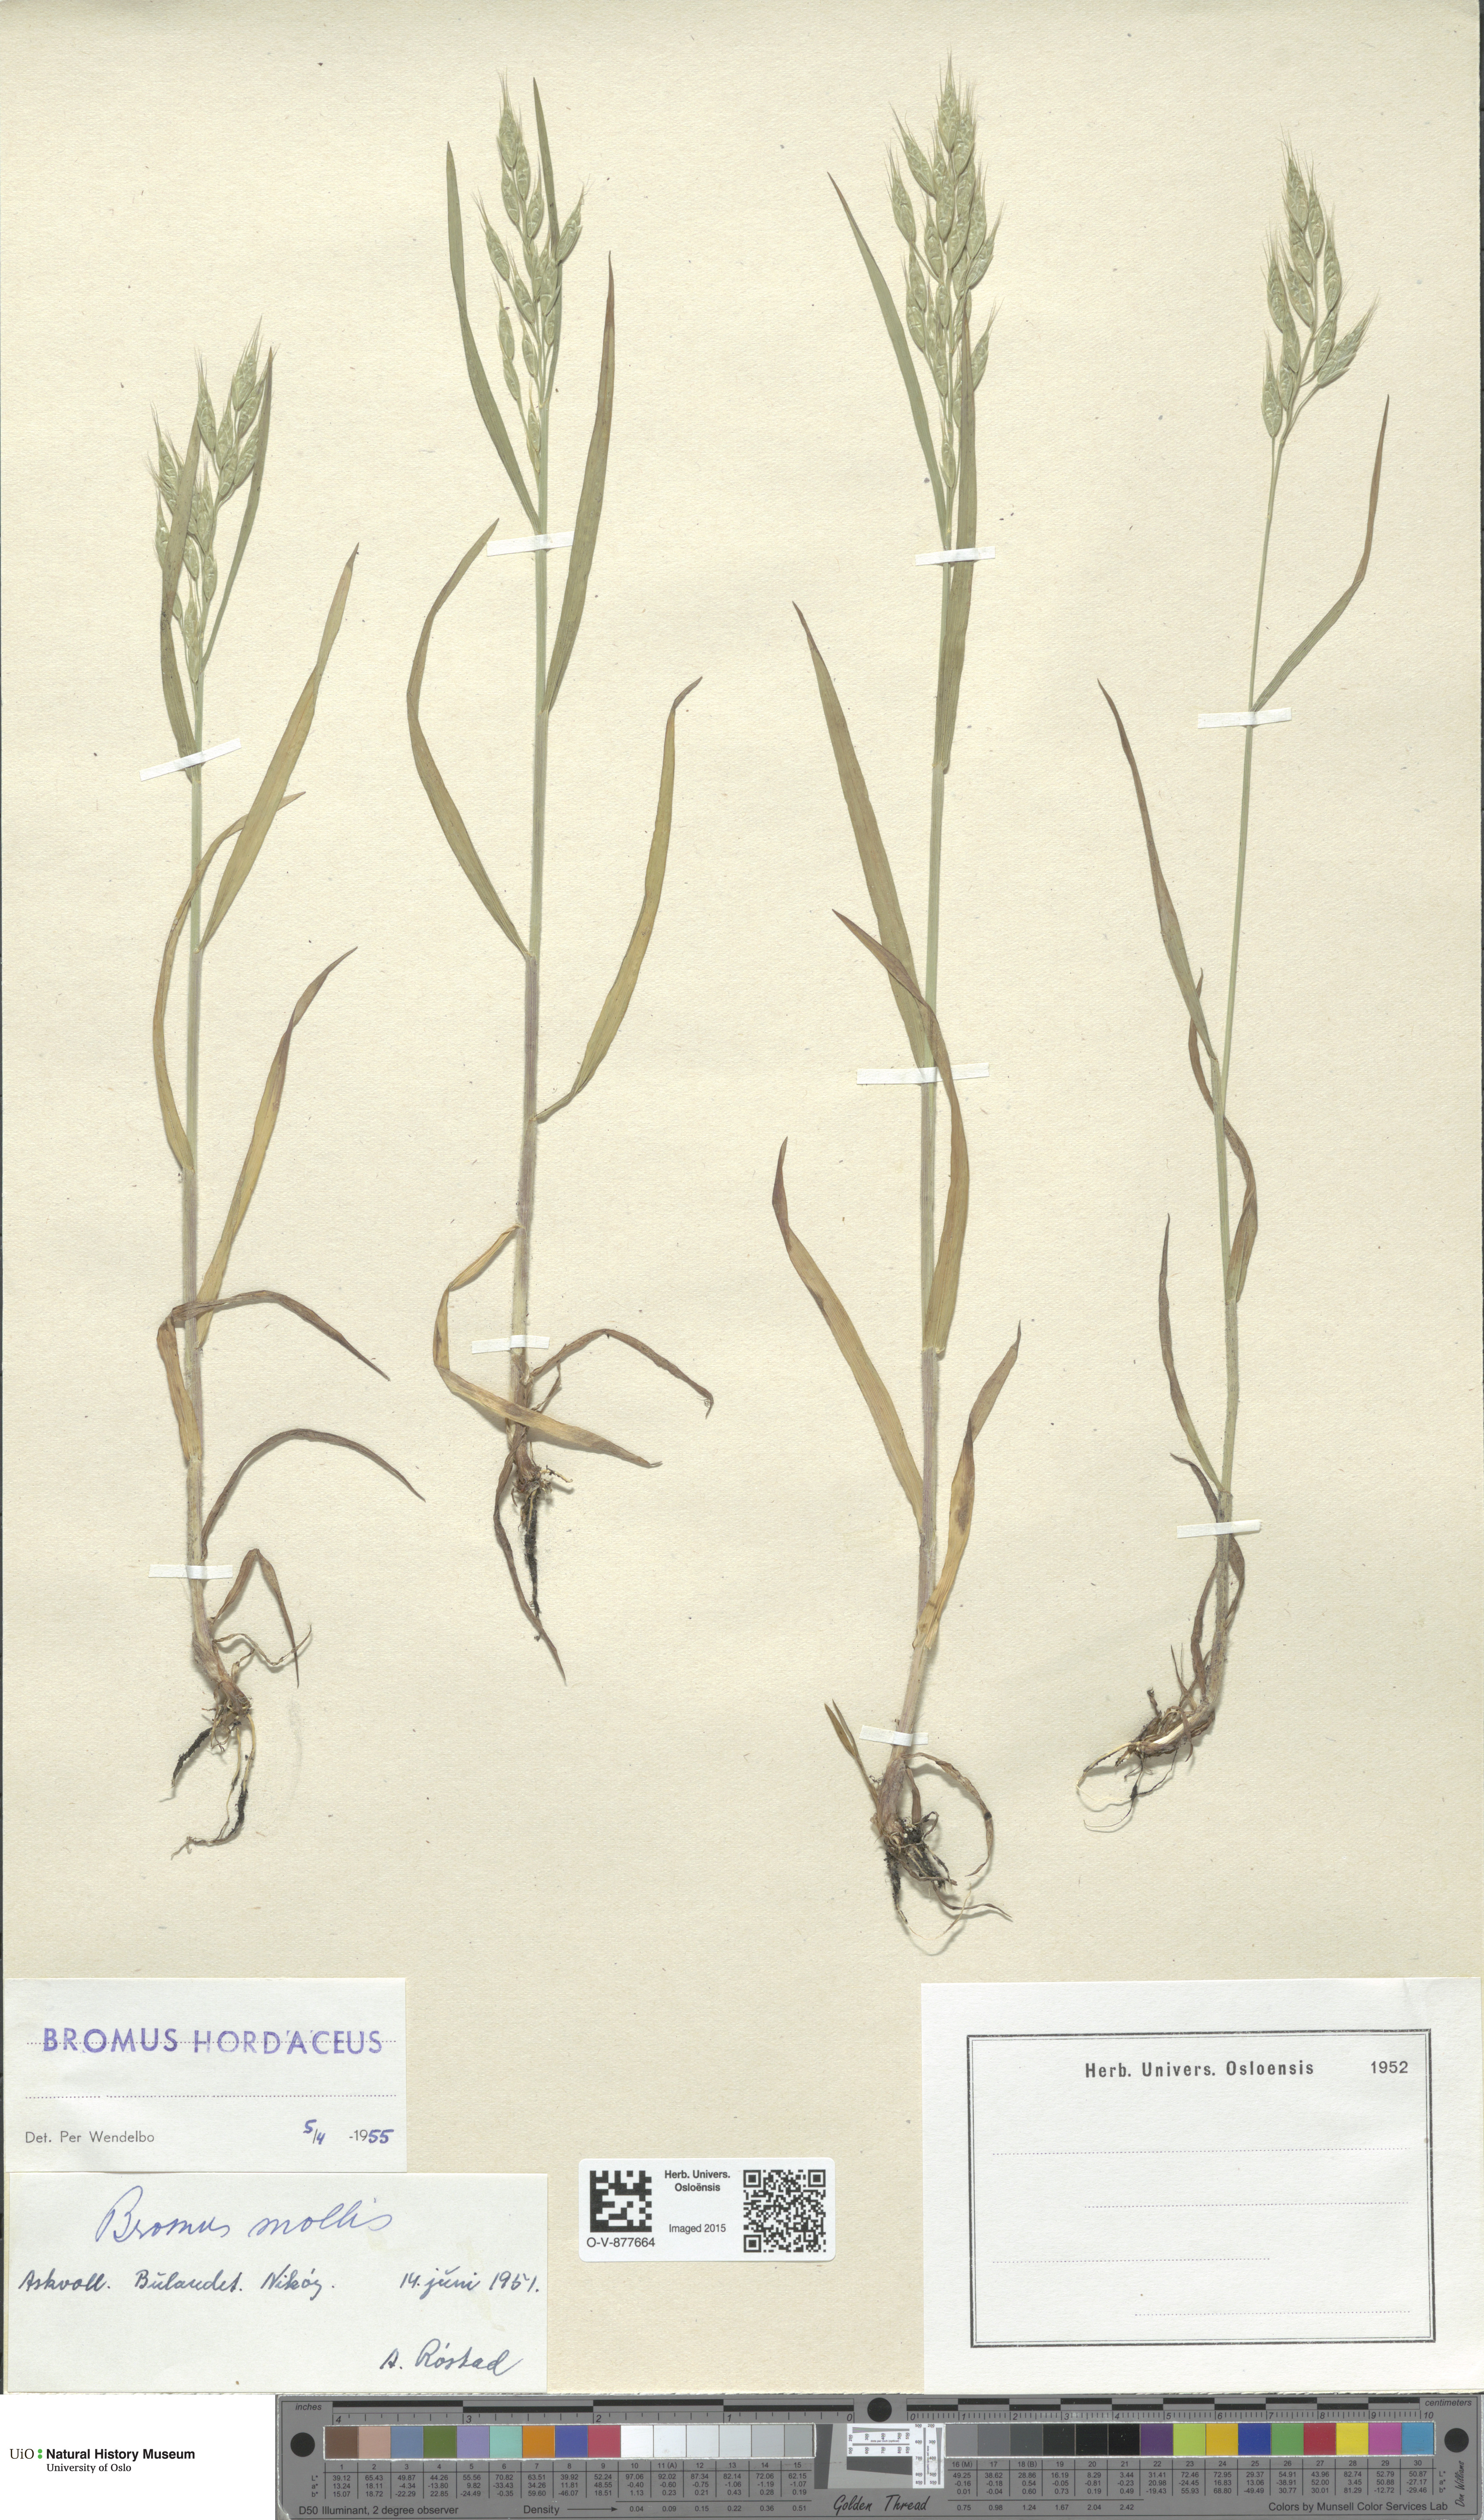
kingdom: Plantae
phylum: Tracheophyta
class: Liliopsida
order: Poales
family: Poaceae
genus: Bromus
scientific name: Bromus hordeaceus
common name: Soft brome
